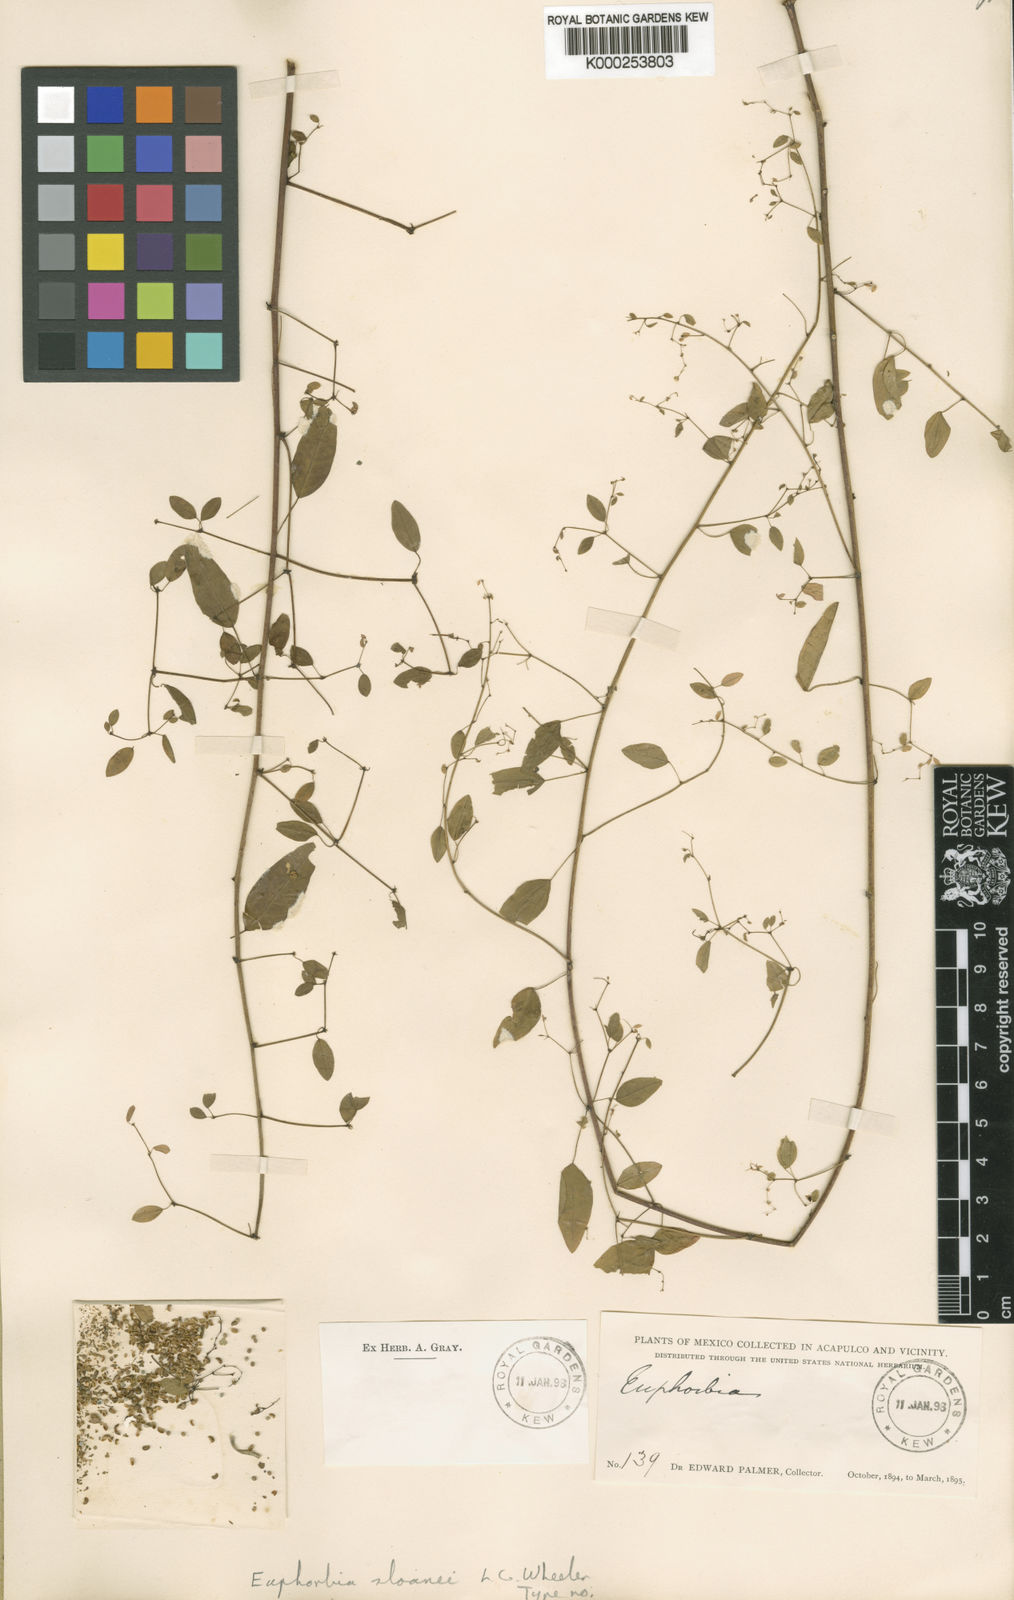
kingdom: Plantae
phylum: Tracheophyta
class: Magnoliopsida
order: Malpighiales
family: Euphorbiaceae
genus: Euphorbia
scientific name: Euphorbia segoviensis
